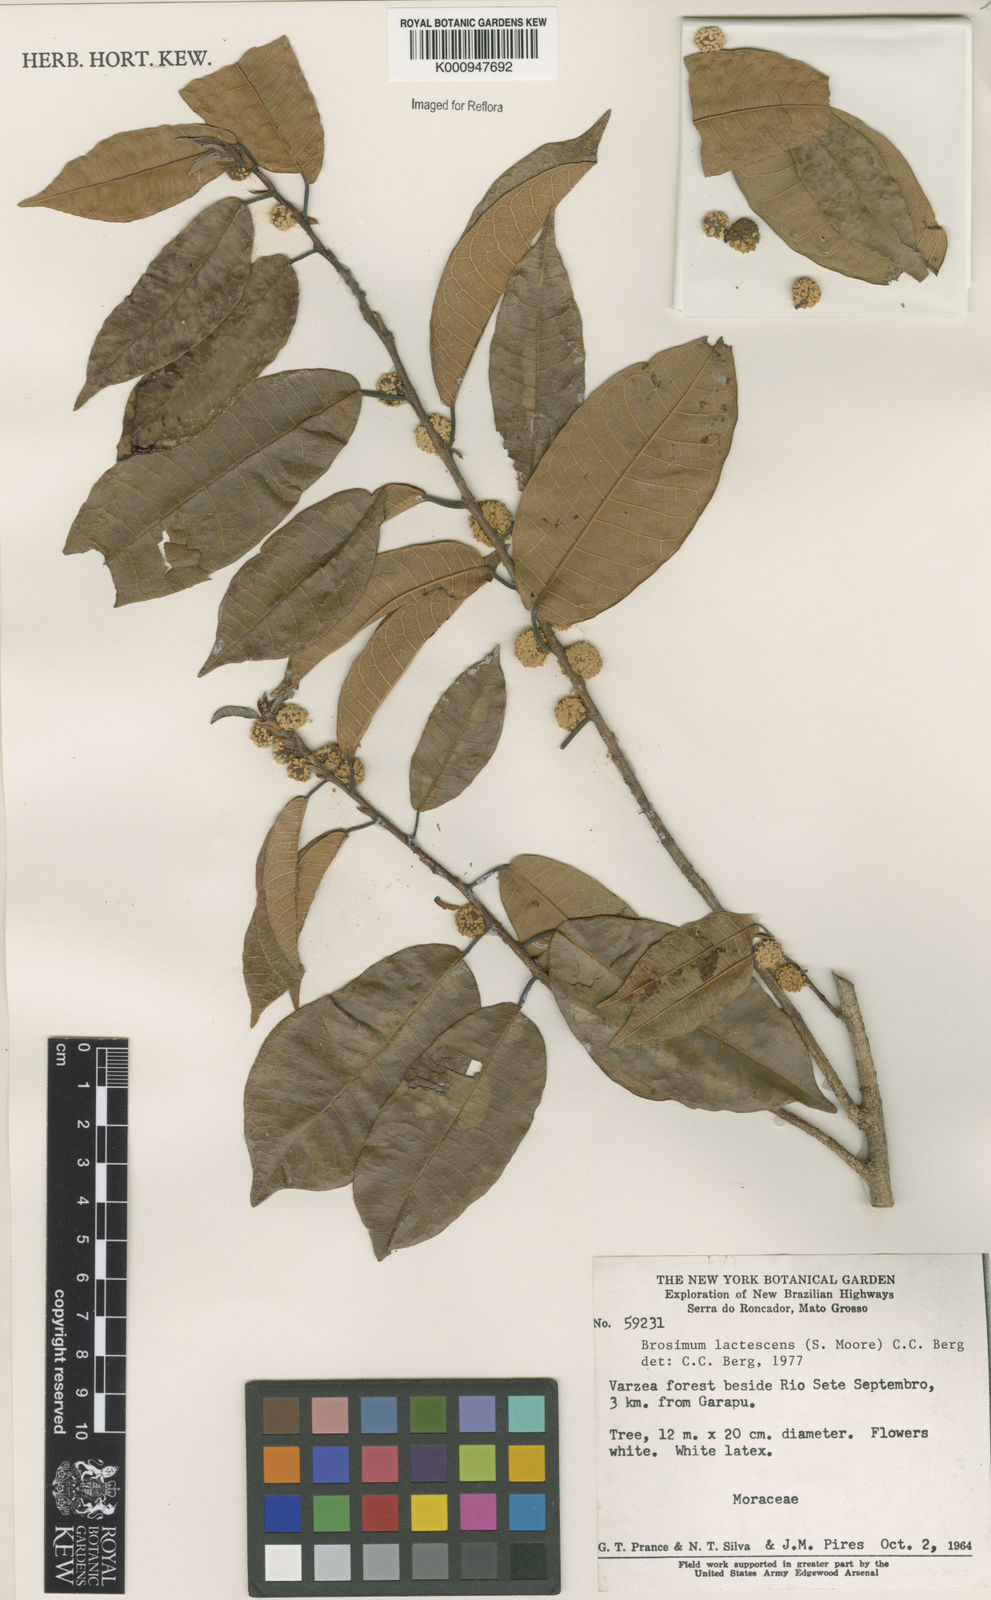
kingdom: Plantae
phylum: Tracheophyta
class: Magnoliopsida
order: Rosales
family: Moraceae
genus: Brosimum
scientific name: Brosimum lactescens
